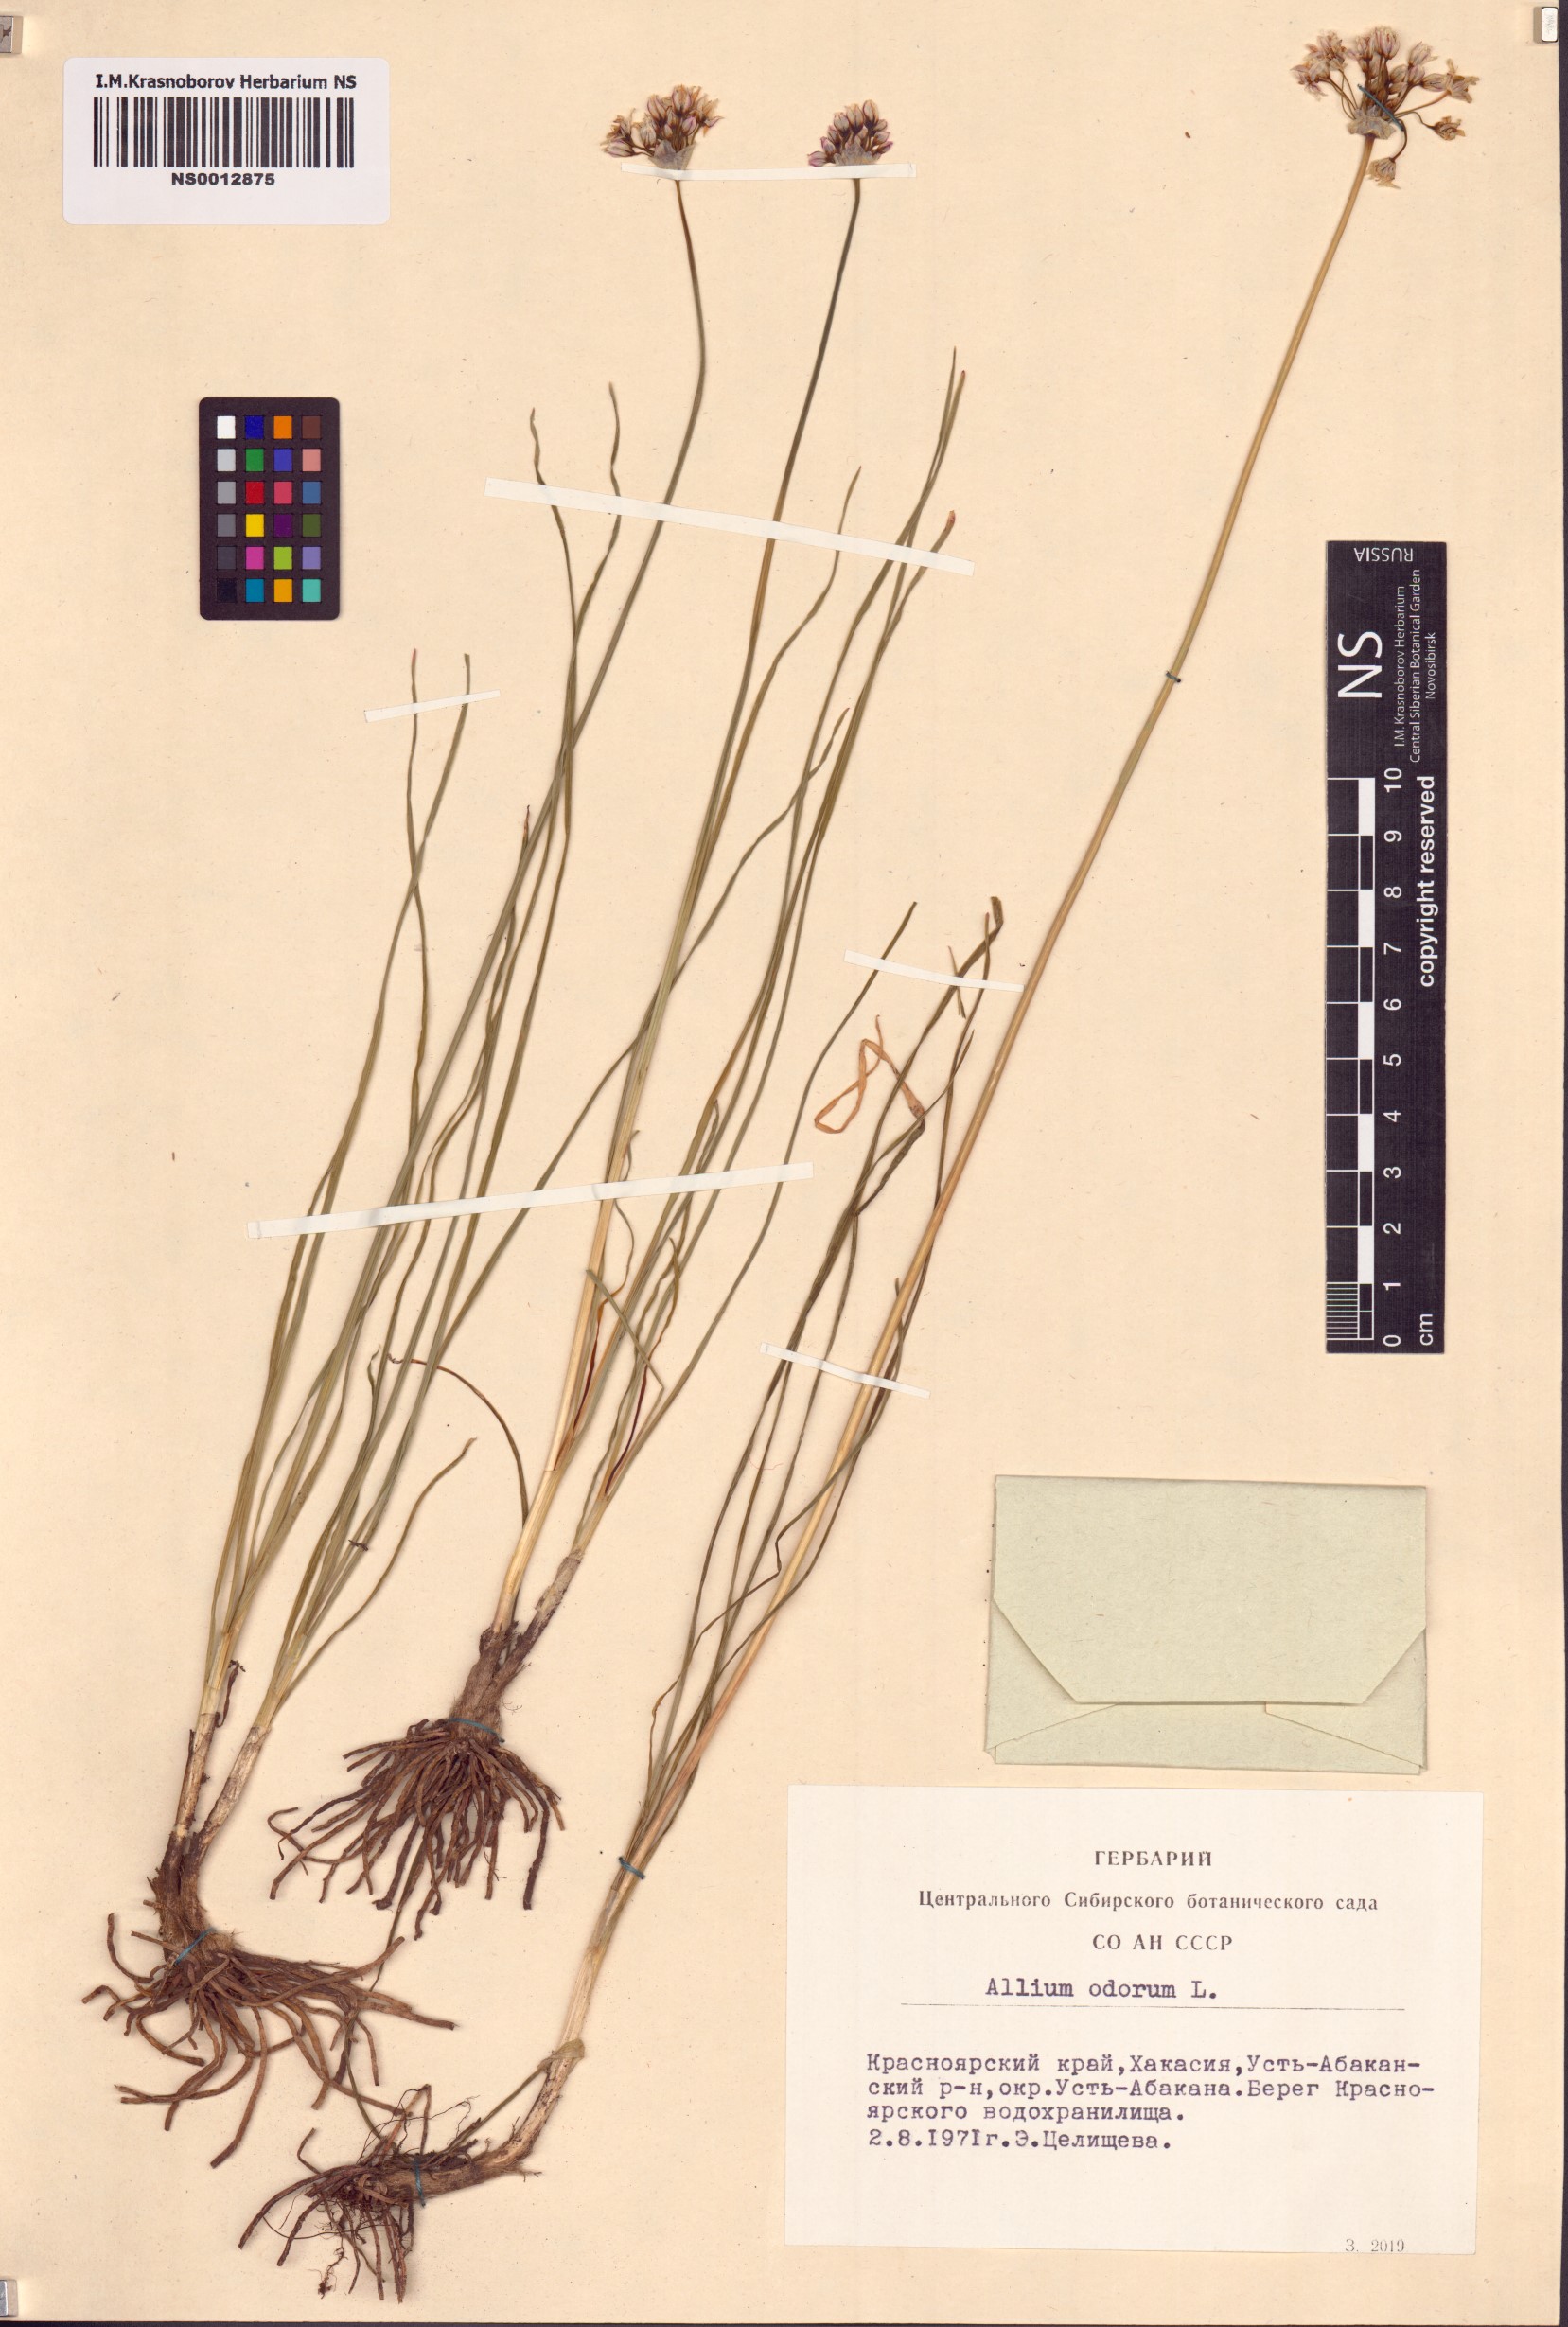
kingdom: Plantae
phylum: Tracheophyta
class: Liliopsida
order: Asparagales
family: Amaryllidaceae
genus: Allium
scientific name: Allium ramosum
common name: Fragrant garlic
